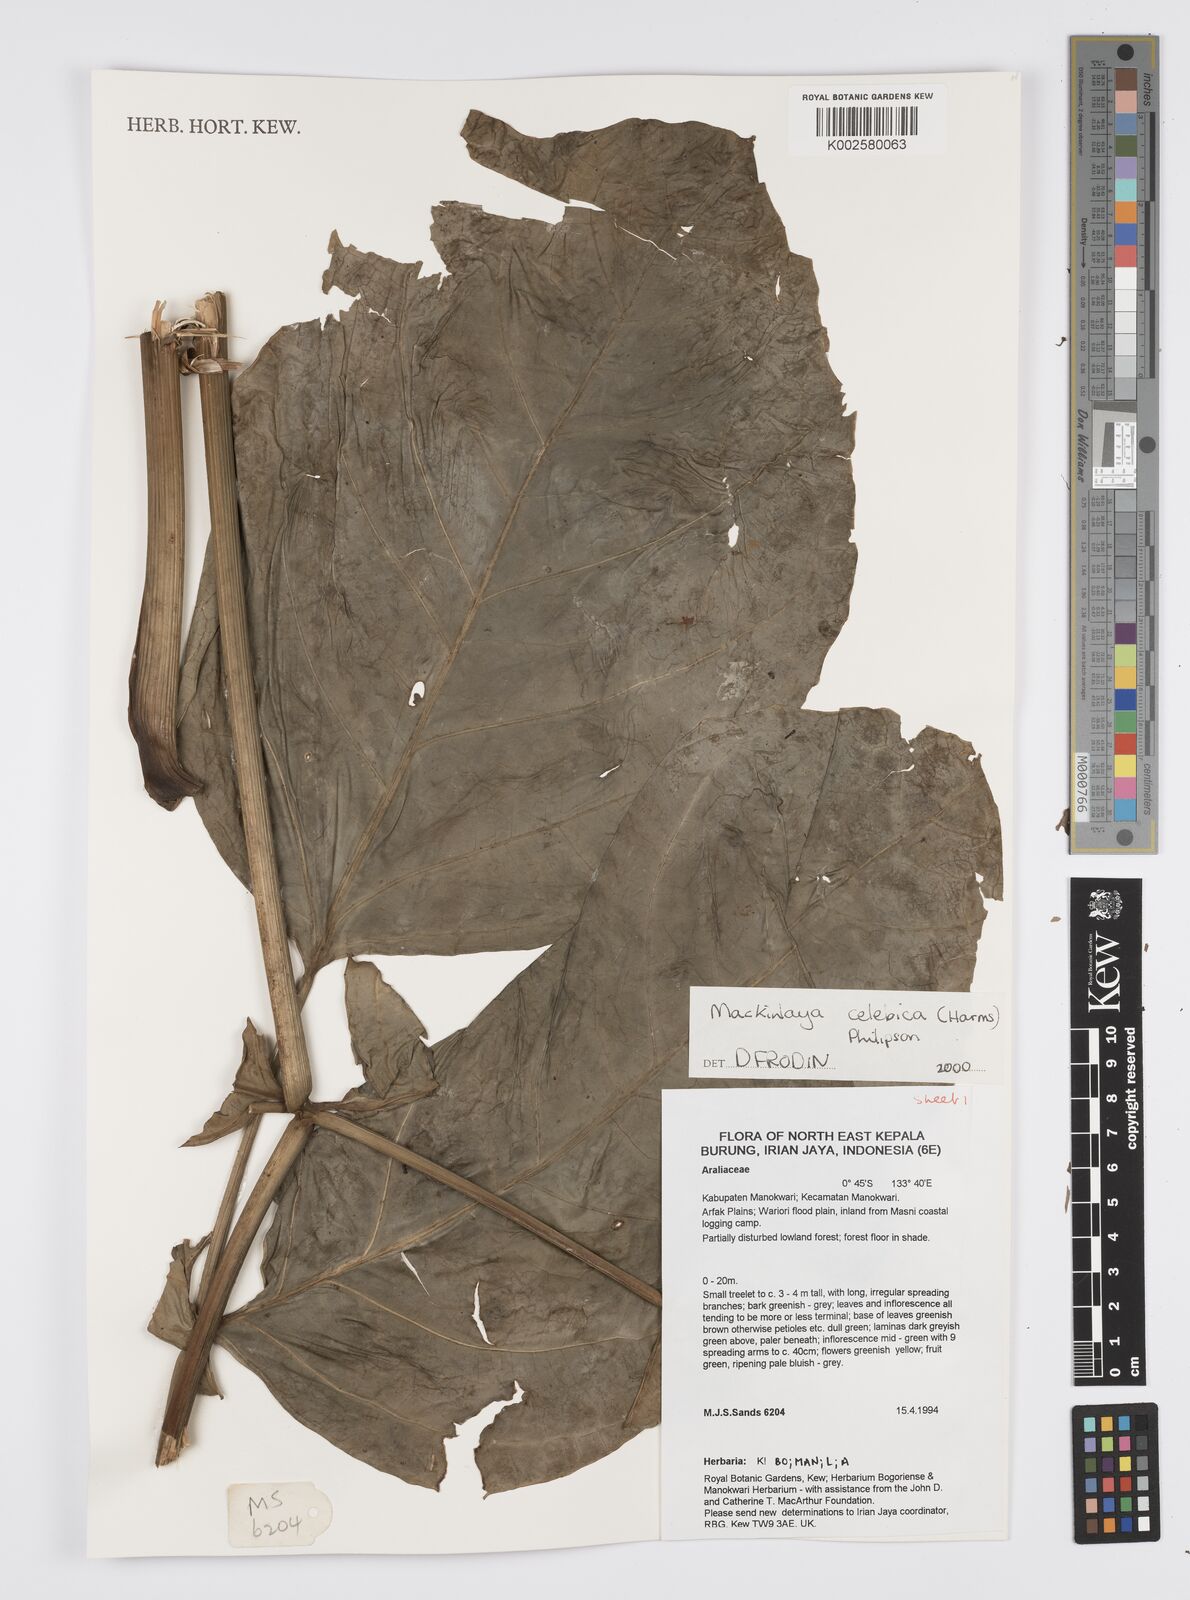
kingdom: Plantae
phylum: Tracheophyta
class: Magnoliopsida
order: Apiales
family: Apiaceae
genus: Mackinlaya
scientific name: Mackinlaya
